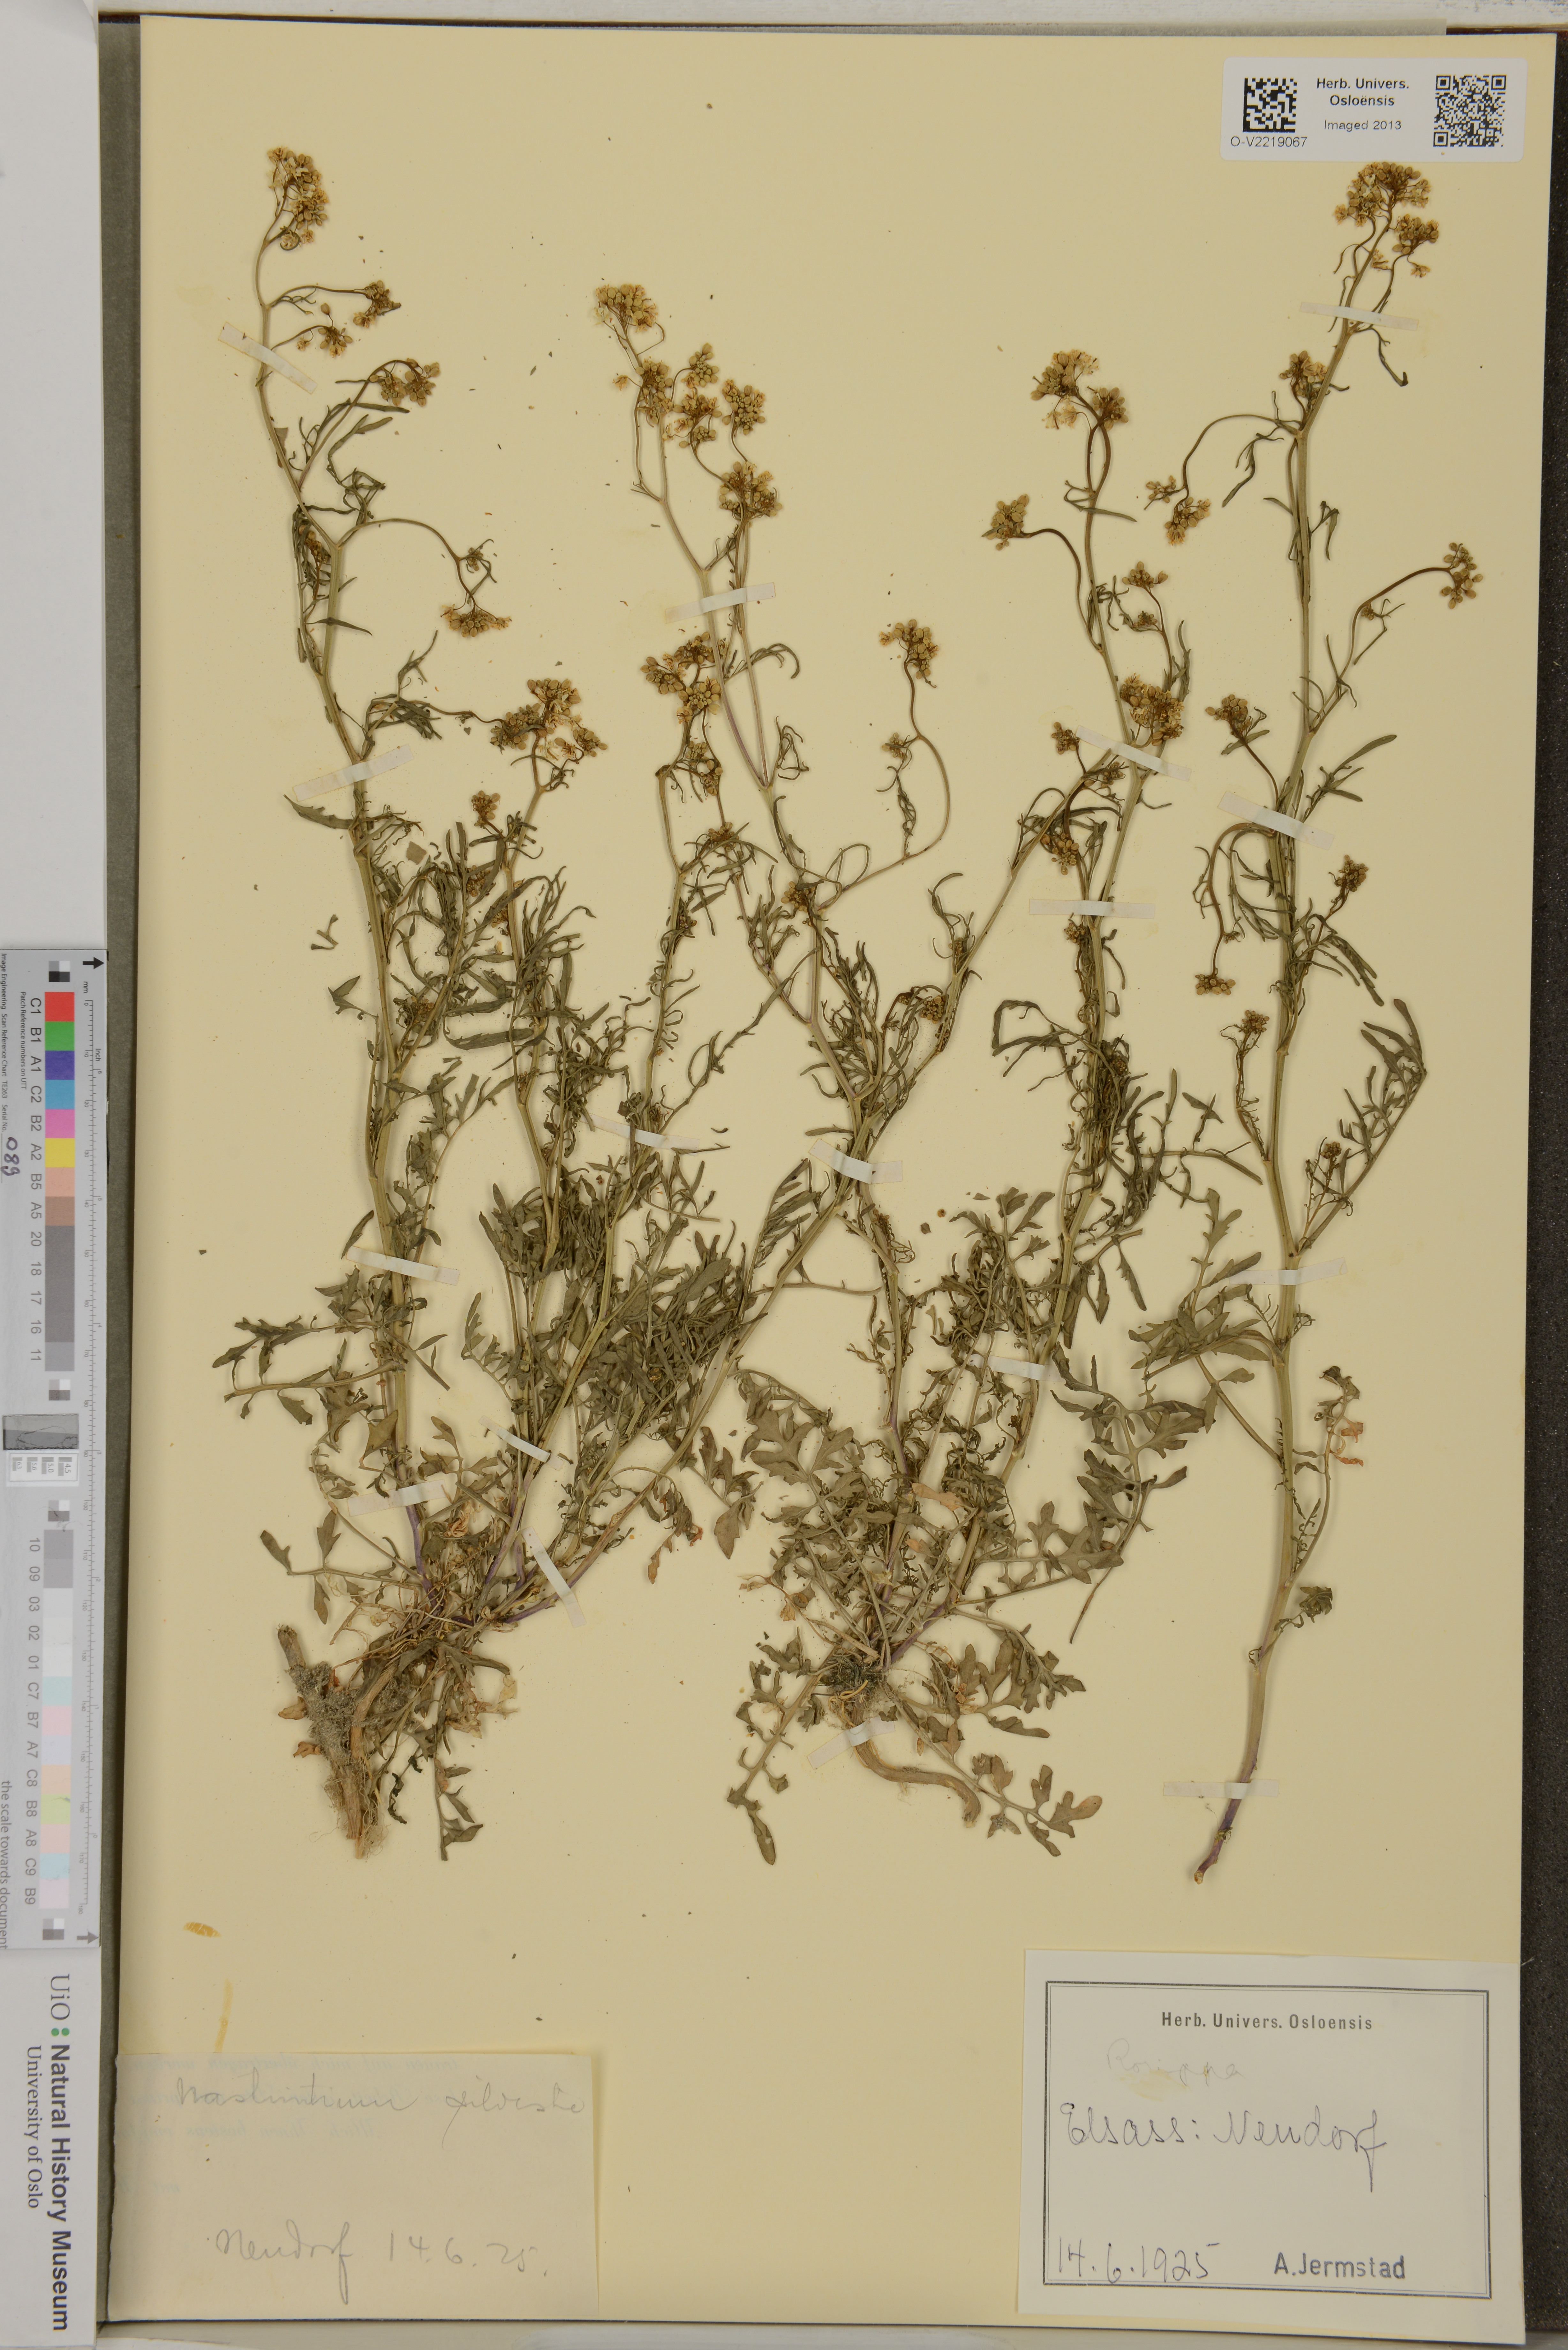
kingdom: Plantae
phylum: Tracheophyta
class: Magnoliopsida
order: Brassicales
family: Brassicaceae
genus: Rorippa
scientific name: Rorippa sylvestris
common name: Creeping yellowcress
